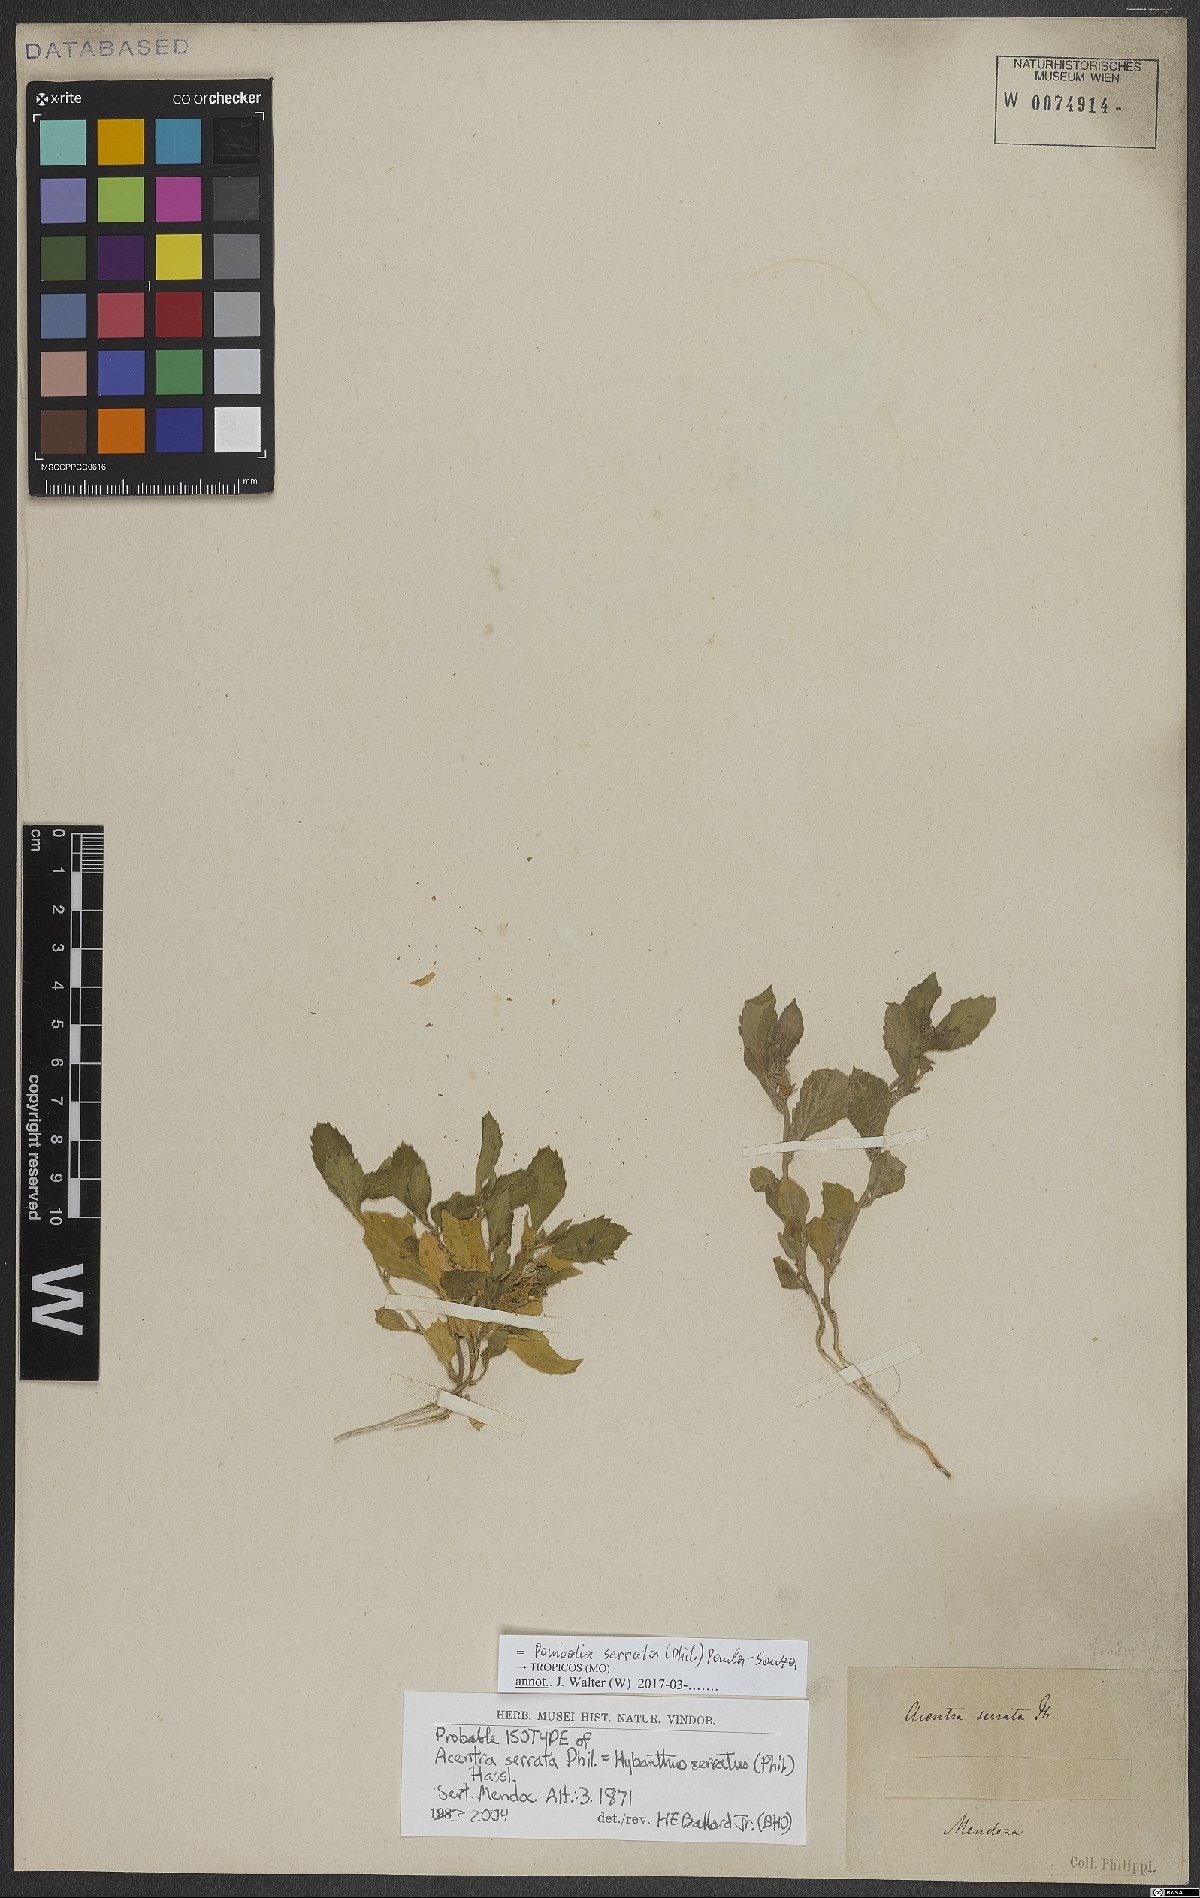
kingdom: Plantae
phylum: Tracheophyta
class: Magnoliopsida
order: Malpighiales
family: Violaceae
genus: Pombalia
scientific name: Pombalia serrata
